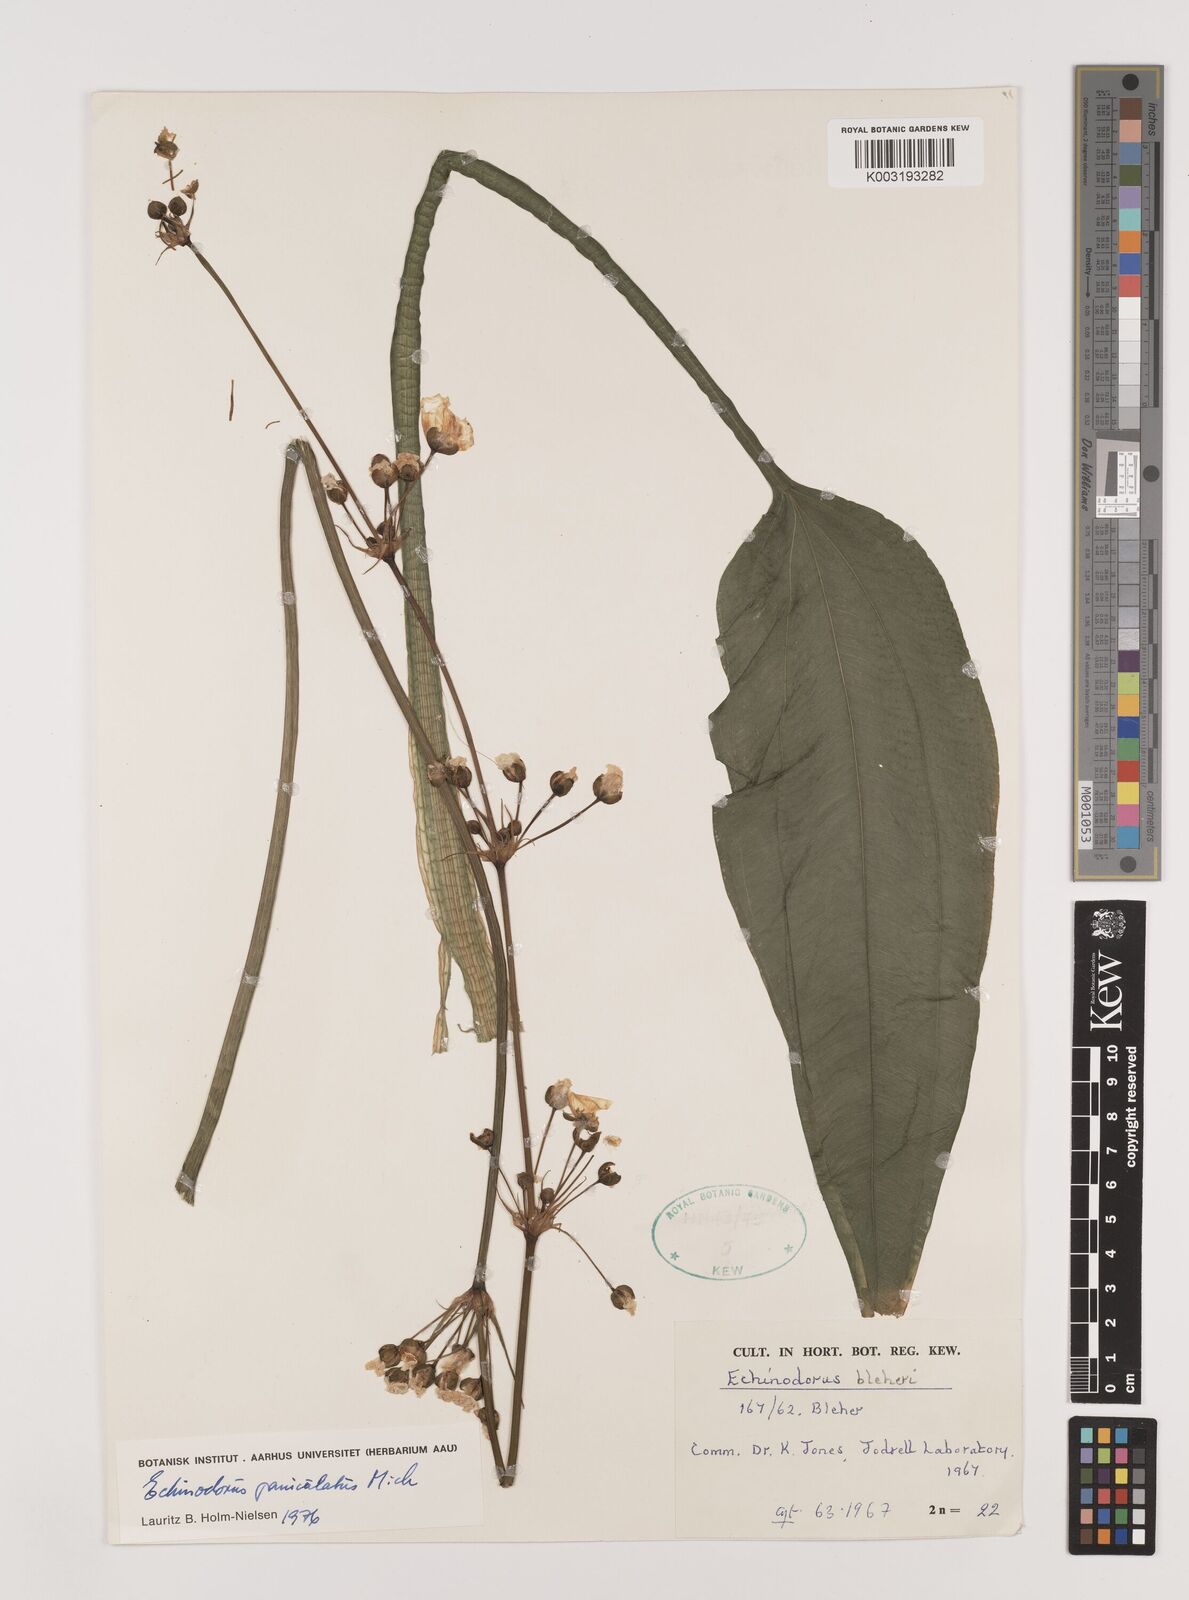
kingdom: Plantae
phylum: Tracheophyta
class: Liliopsida
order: Alismatales
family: Alismataceae
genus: Aquarius
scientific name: Aquarius paniculatus
